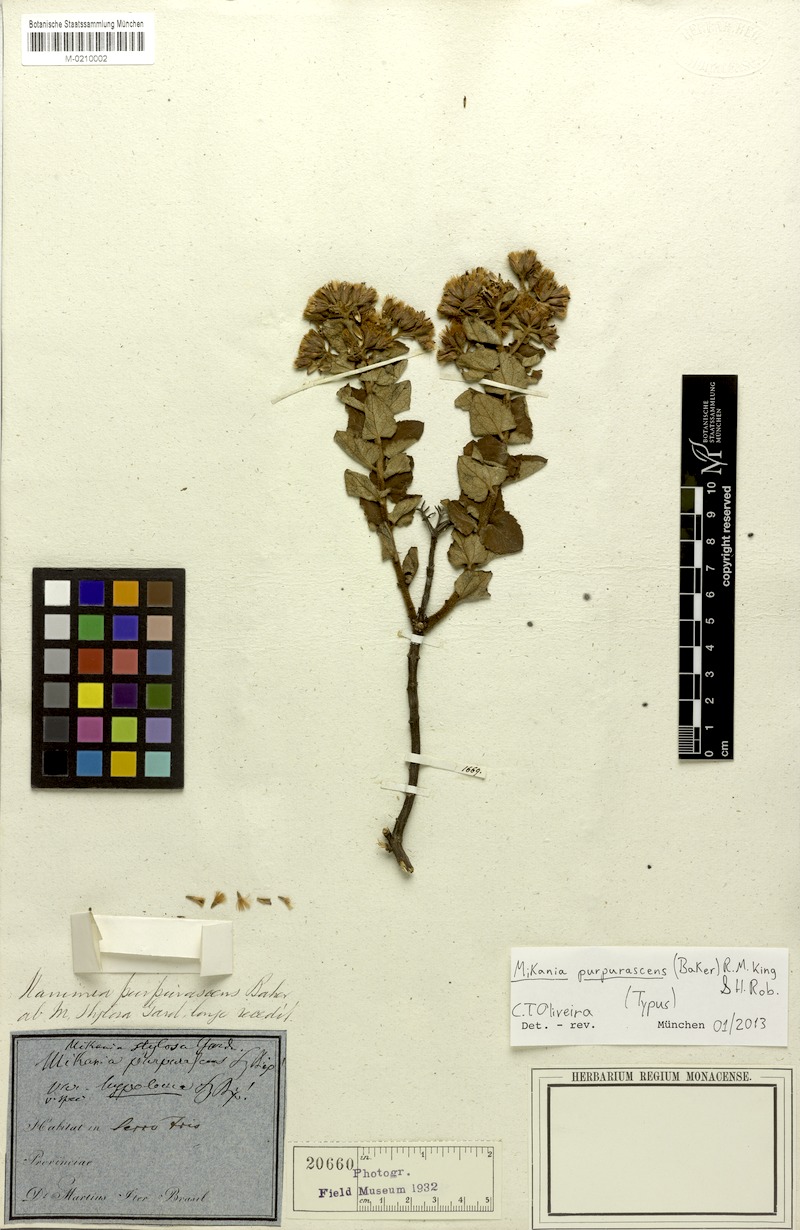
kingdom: Plantae
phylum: Tracheophyta
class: Magnoliopsida
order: Asterales
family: Asteraceae
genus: Mikania
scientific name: Mikania purpurascens
